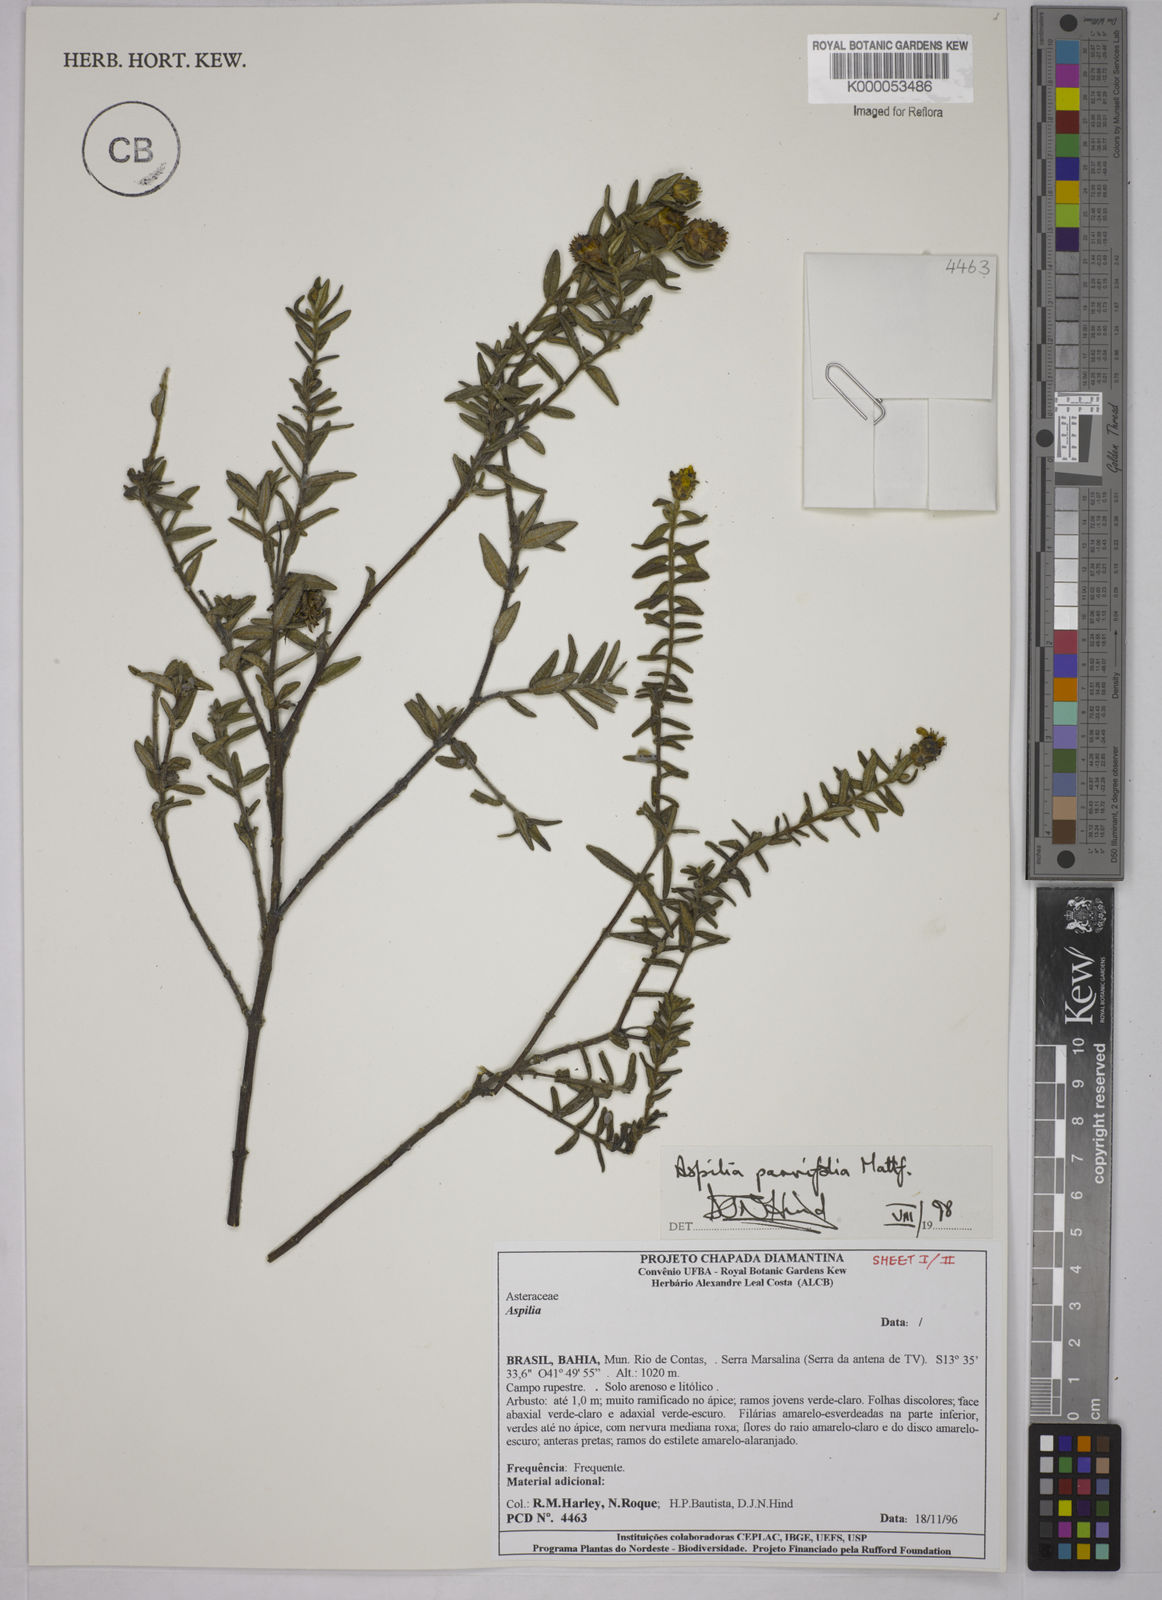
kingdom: Plantae
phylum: Tracheophyta
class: Magnoliopsida
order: Asterales
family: Asteraceae
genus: Aspilia
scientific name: Aspilia foliosa
